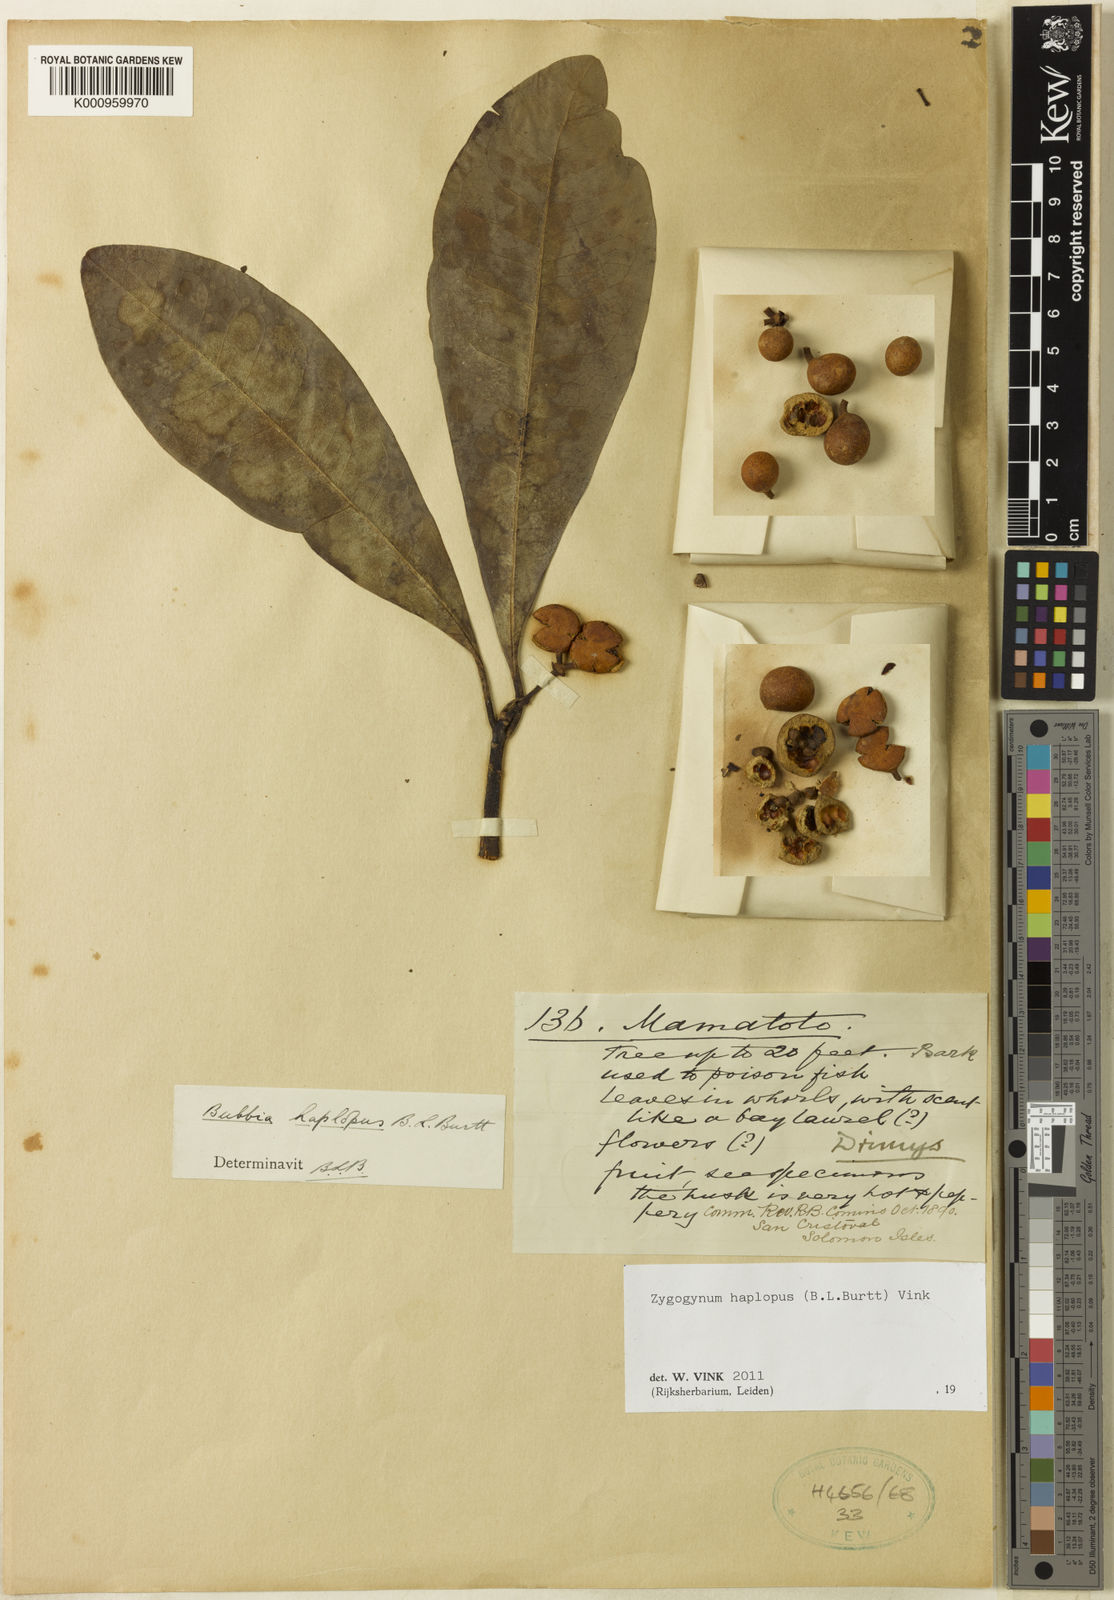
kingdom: Plantae
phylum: Tracheophyta
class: Magnoliopsida
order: Canellales
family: Winteraceae
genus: Zygogynum
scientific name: Zygogynum haplopus
